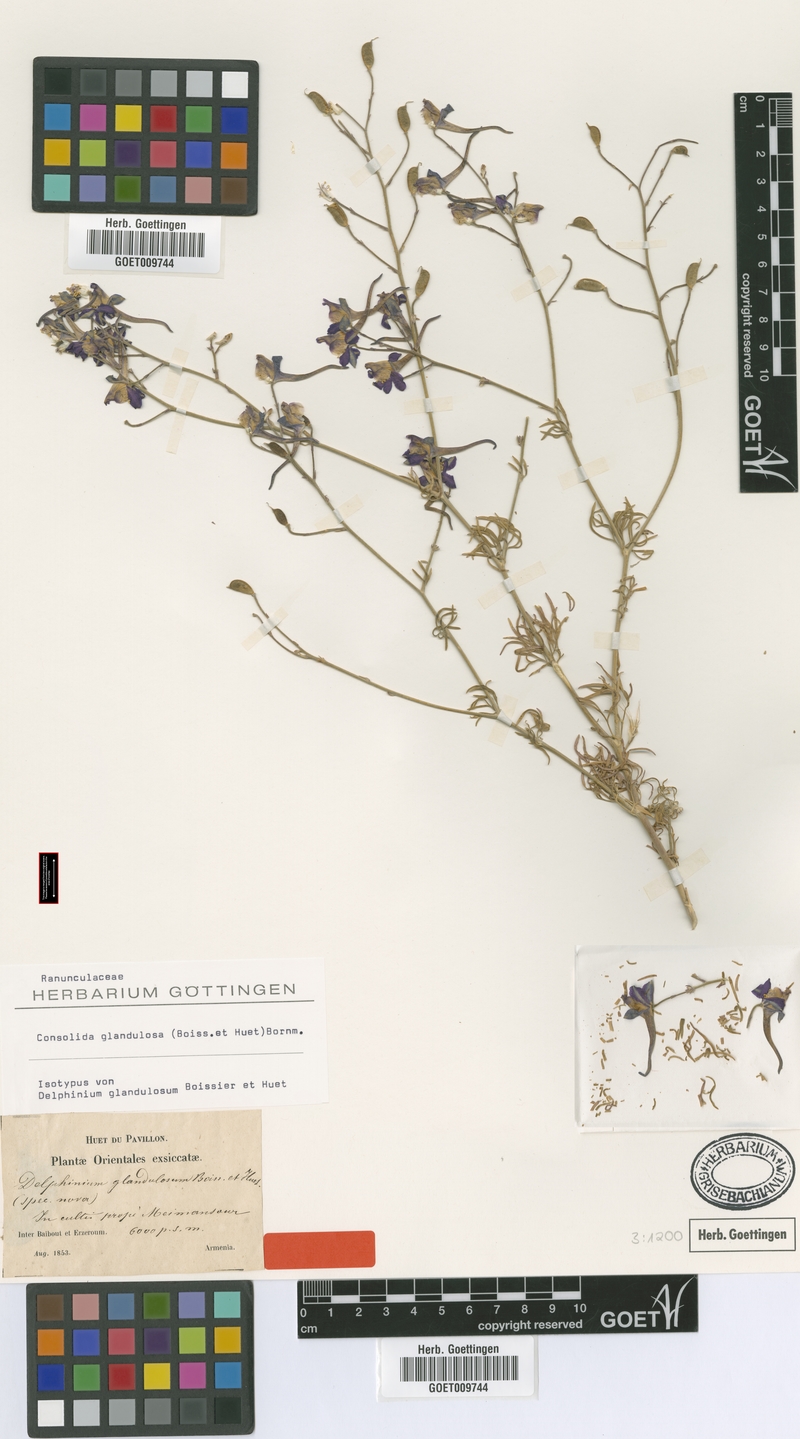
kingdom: Plantae
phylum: Tracheophyta
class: Magnoliopsida
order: Ranunculales
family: Ranunculaceae
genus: Delphinium
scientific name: Delphinium glandulosum
